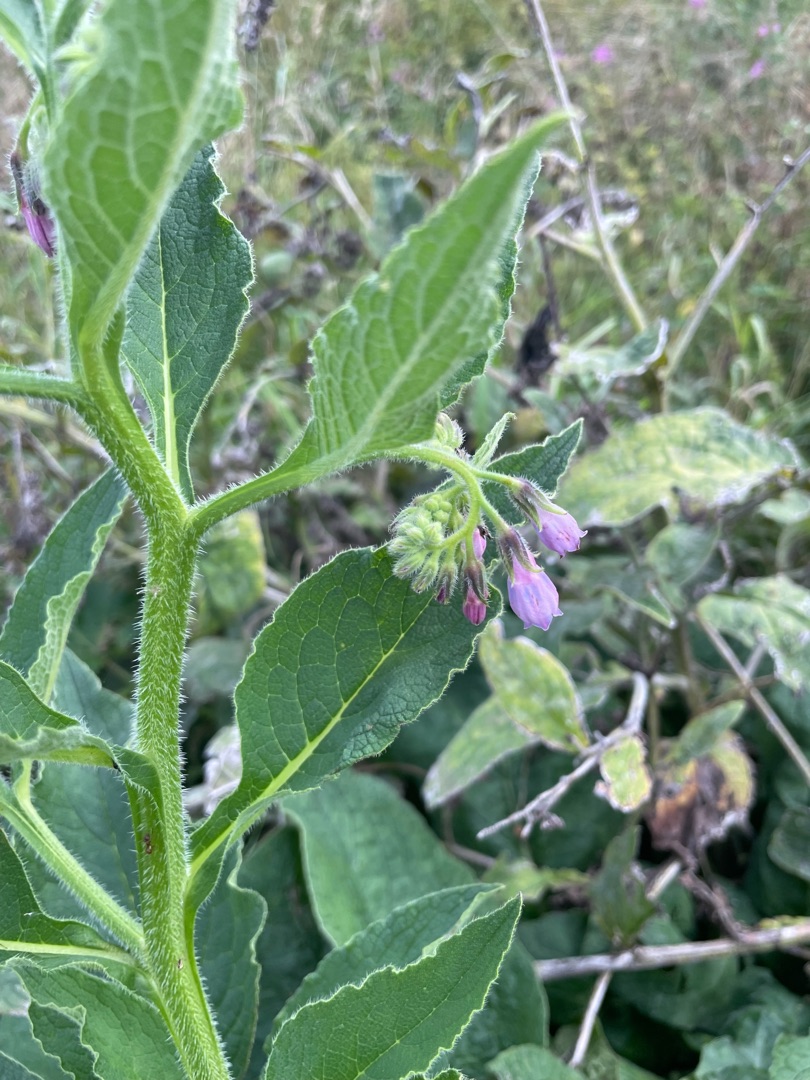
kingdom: Plantae
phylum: Tracheophyta
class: Magnoliopsida
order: Boraginales
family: Boraginaceae
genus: Symphytum
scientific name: Symphytum uplandicum
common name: Foder-kulsukker
